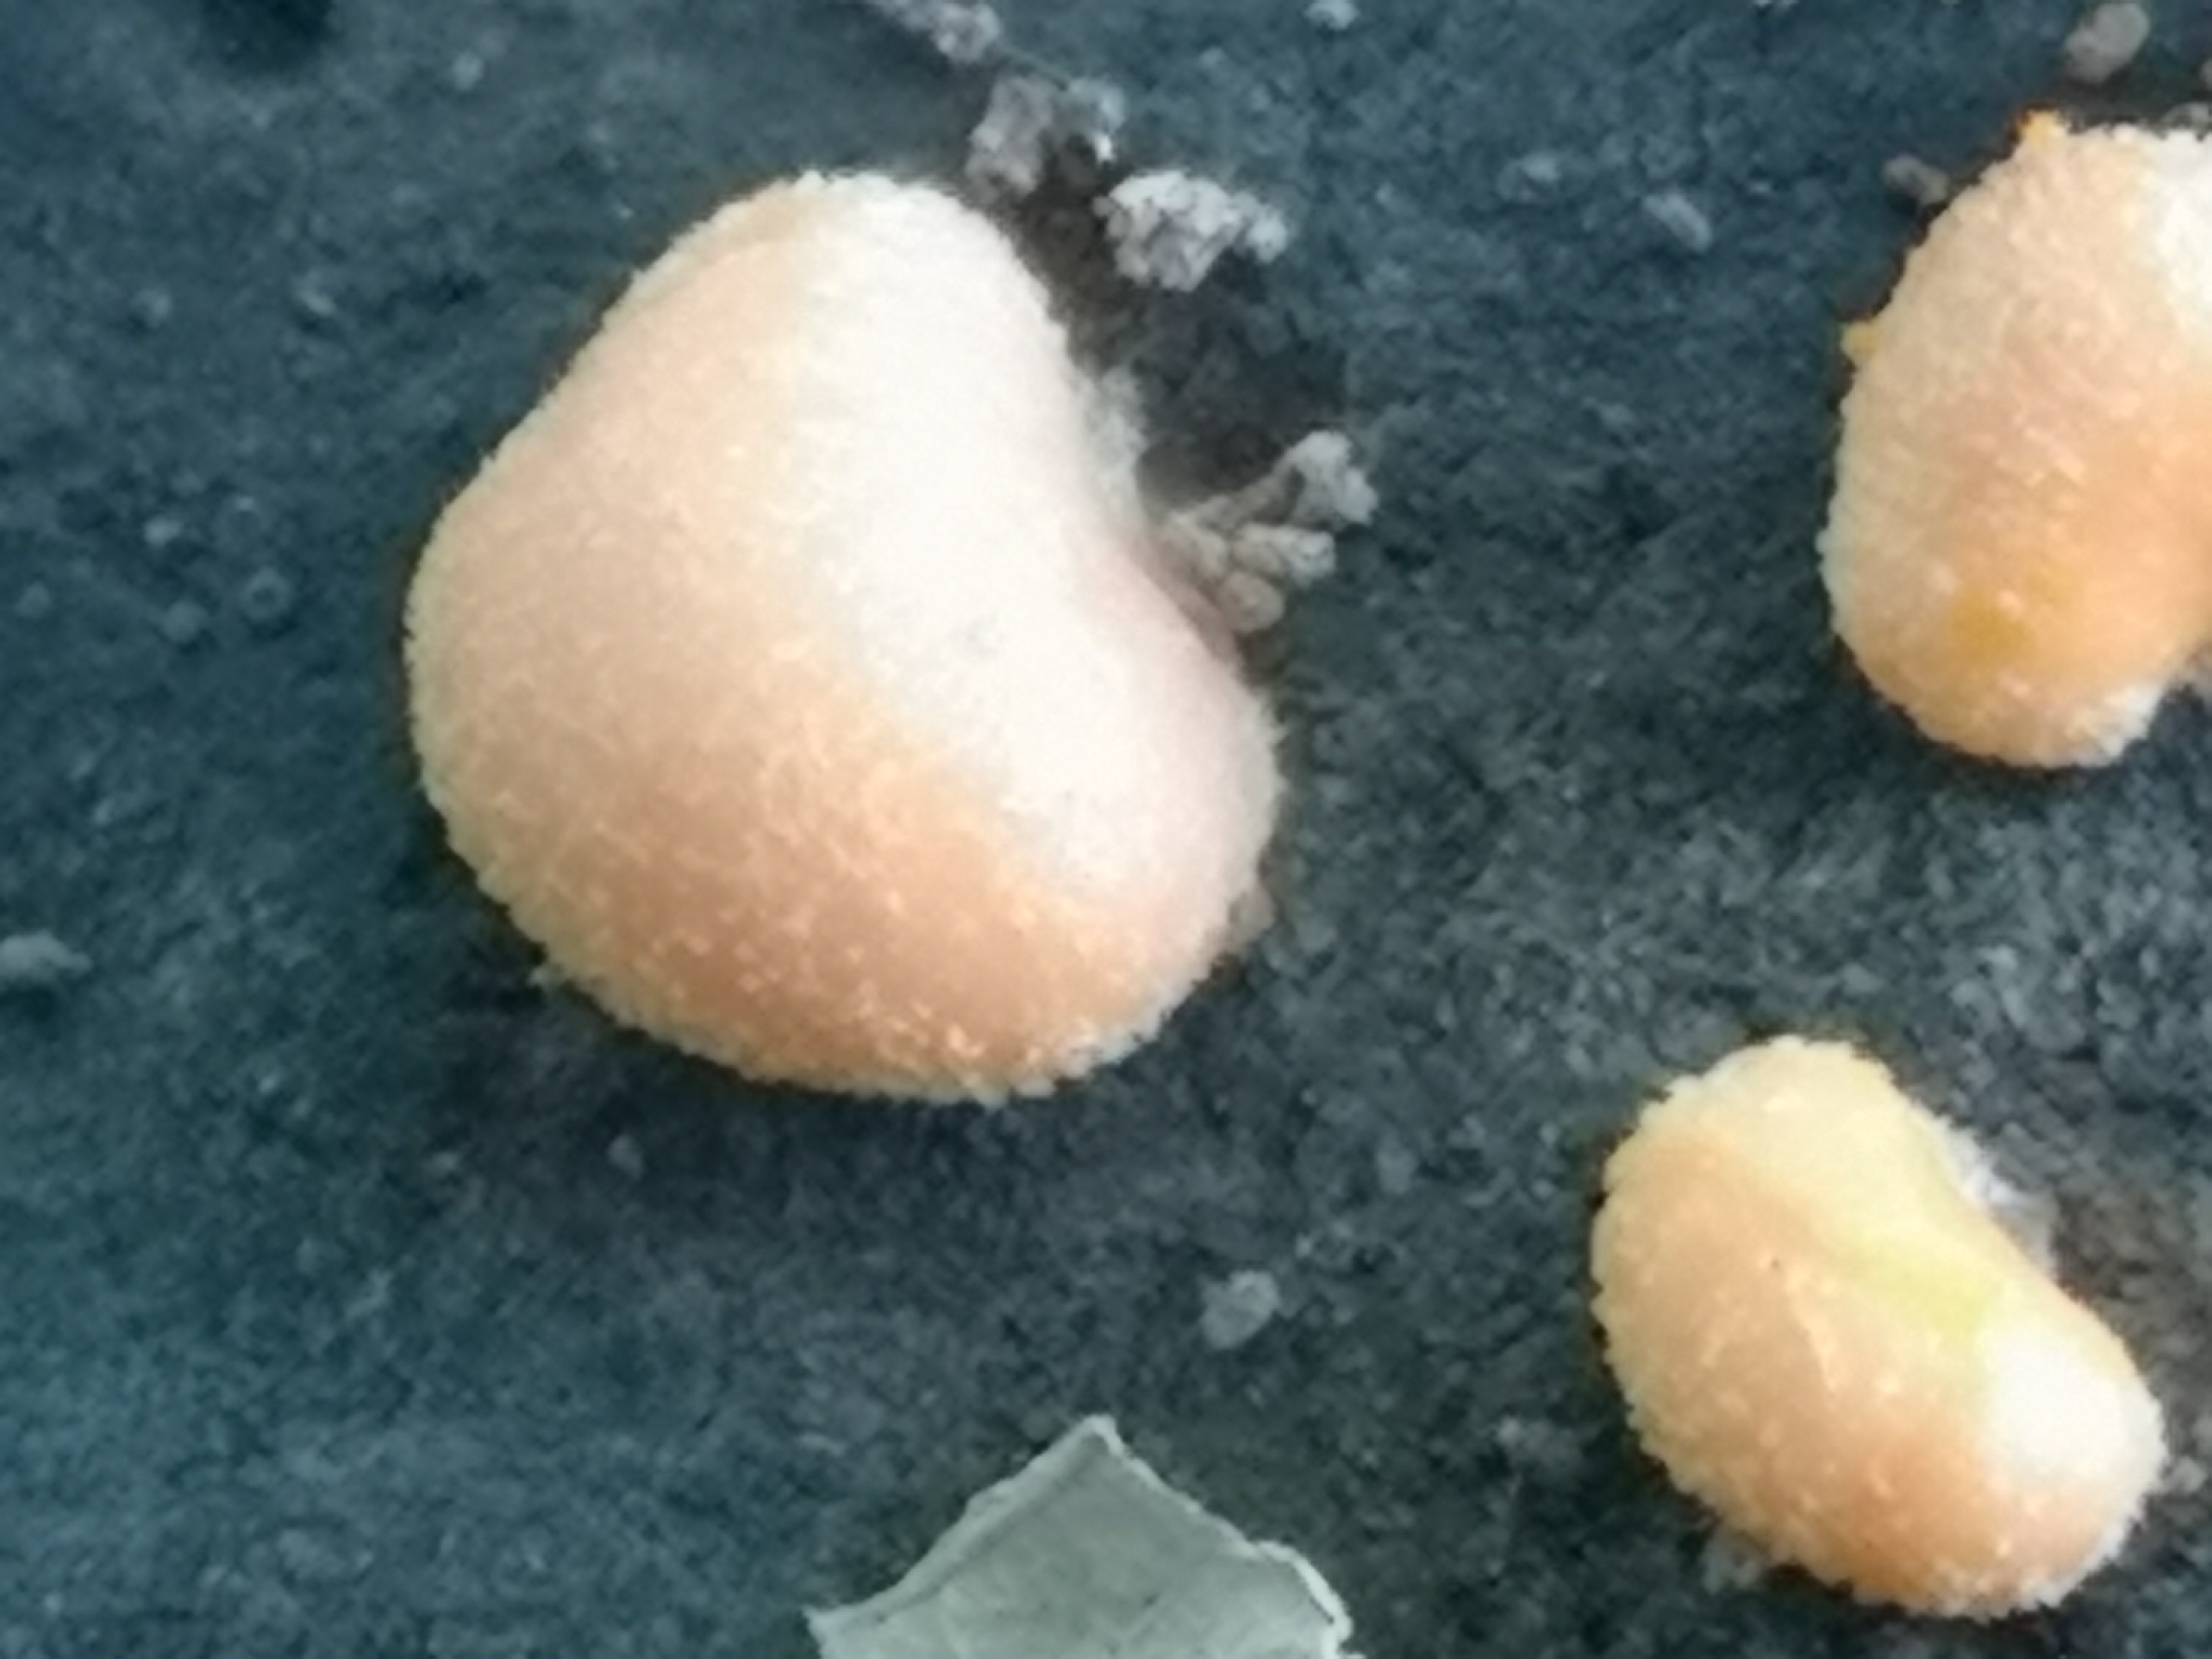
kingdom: Protozoa
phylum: Mycetozoa
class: Myxomycetes
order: Cribrariales
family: Tubiferaceae
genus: Lycogala
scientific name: Lycogala epidendrum
